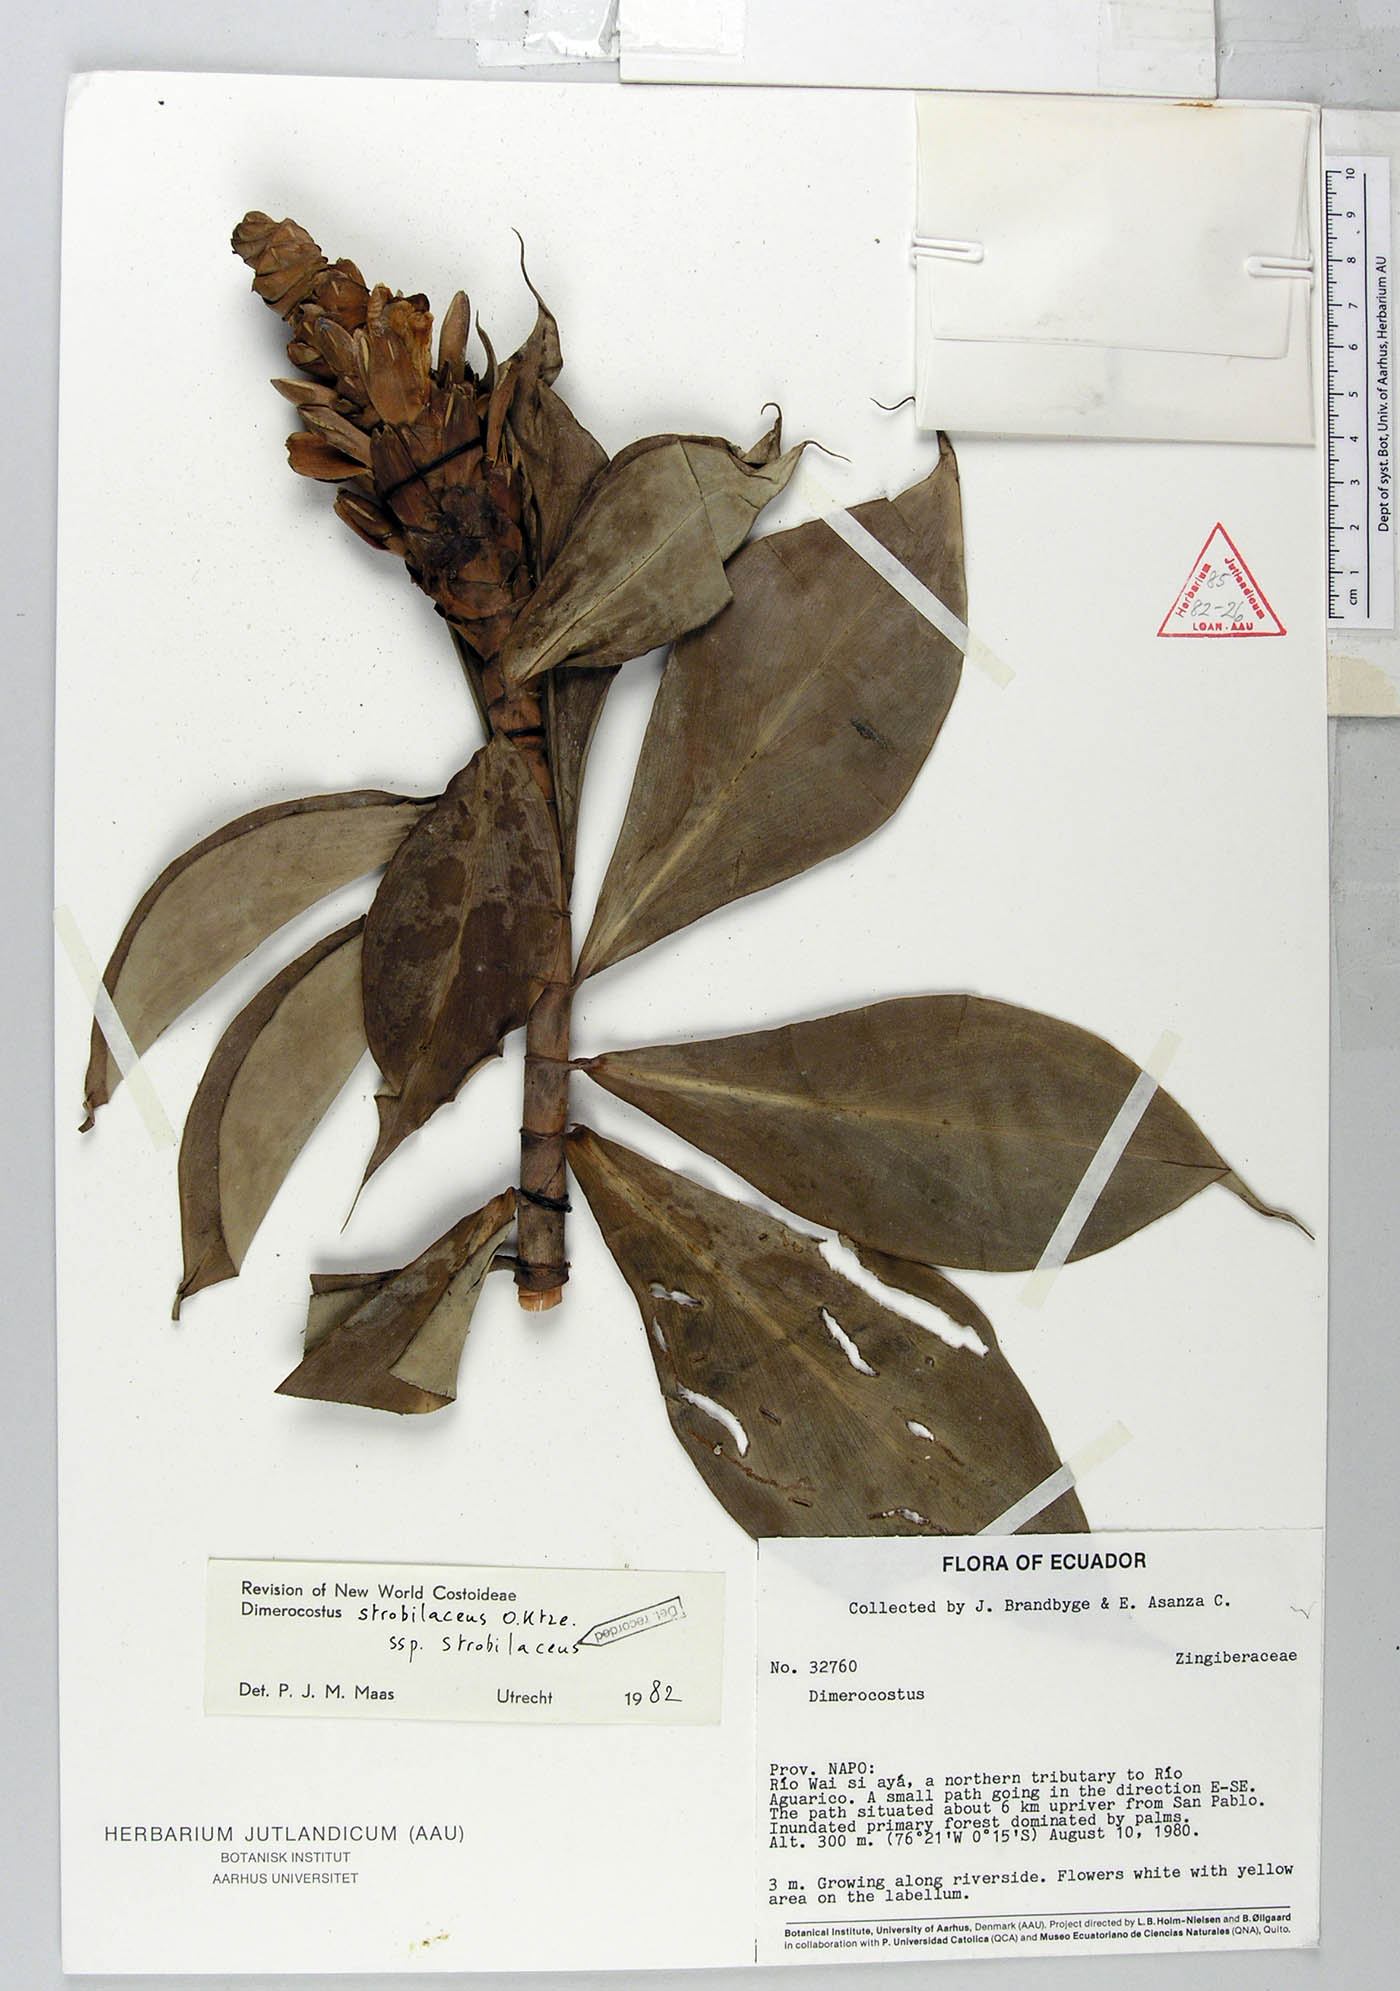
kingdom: Plantae
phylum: Tracheophyta
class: Liliopsida
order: Zingiberales
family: Costaceae
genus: Dimerocostus
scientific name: Dimerocostus strobilaceus
